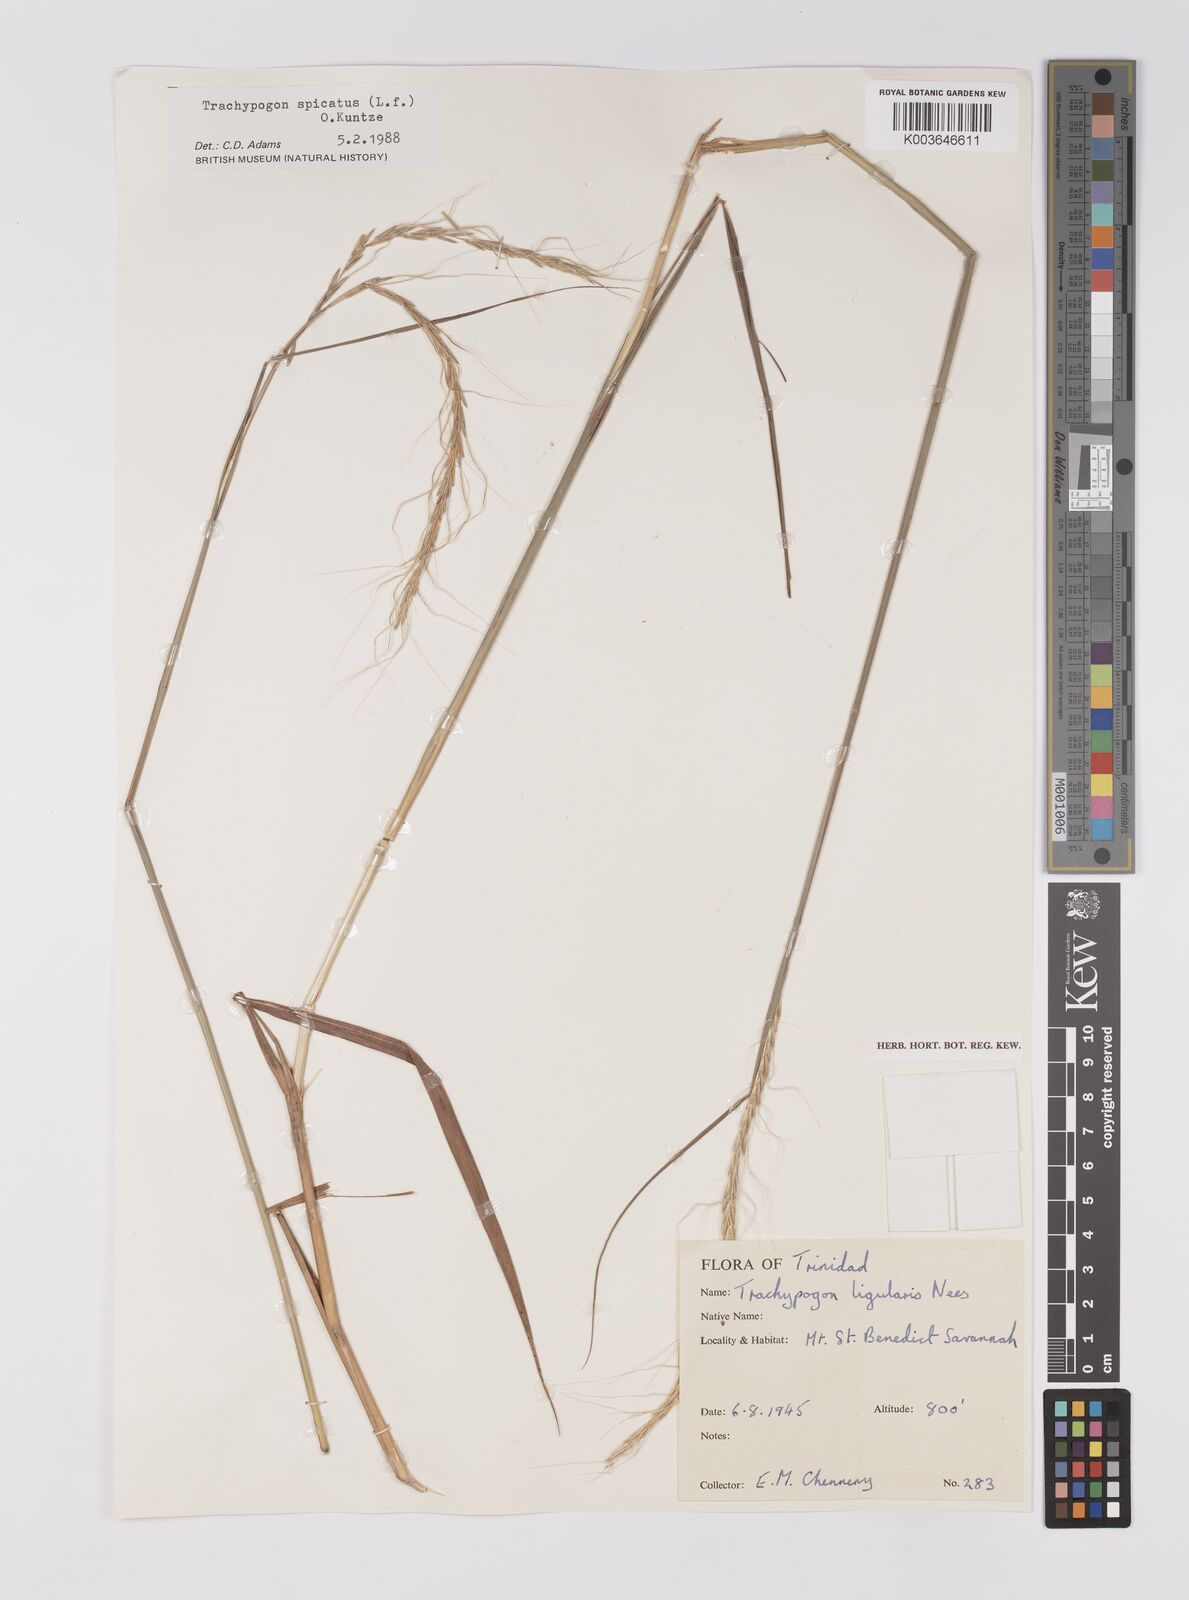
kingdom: Plantae
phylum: Tracheophyta
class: Liliopsida
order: Poales
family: Poaceae
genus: Trachypogon
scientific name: Trachypogon spicatus
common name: Crinkle-awn
